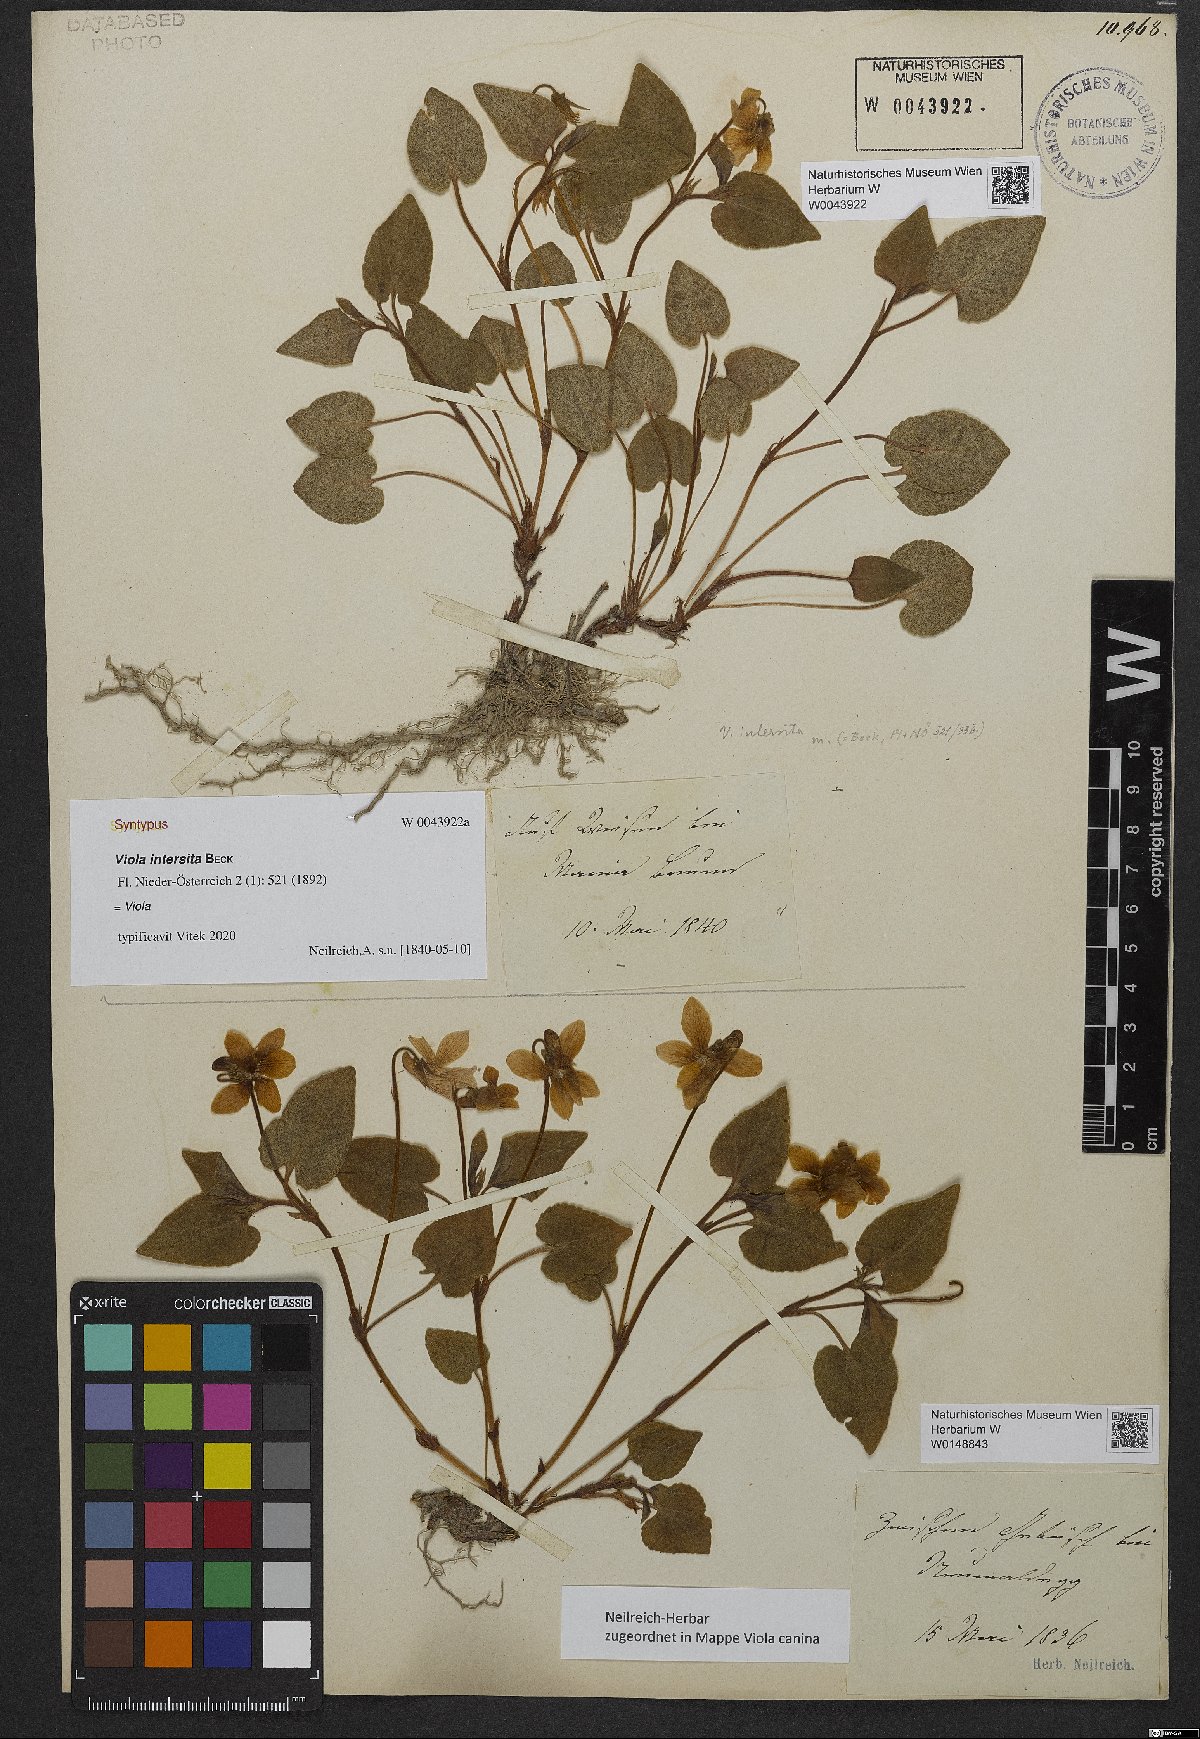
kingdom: Plantae
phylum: Tracheophyta
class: Magnoliopsida
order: Malpighiales
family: Violaceae
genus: Viola
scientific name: Viola kiliensis
